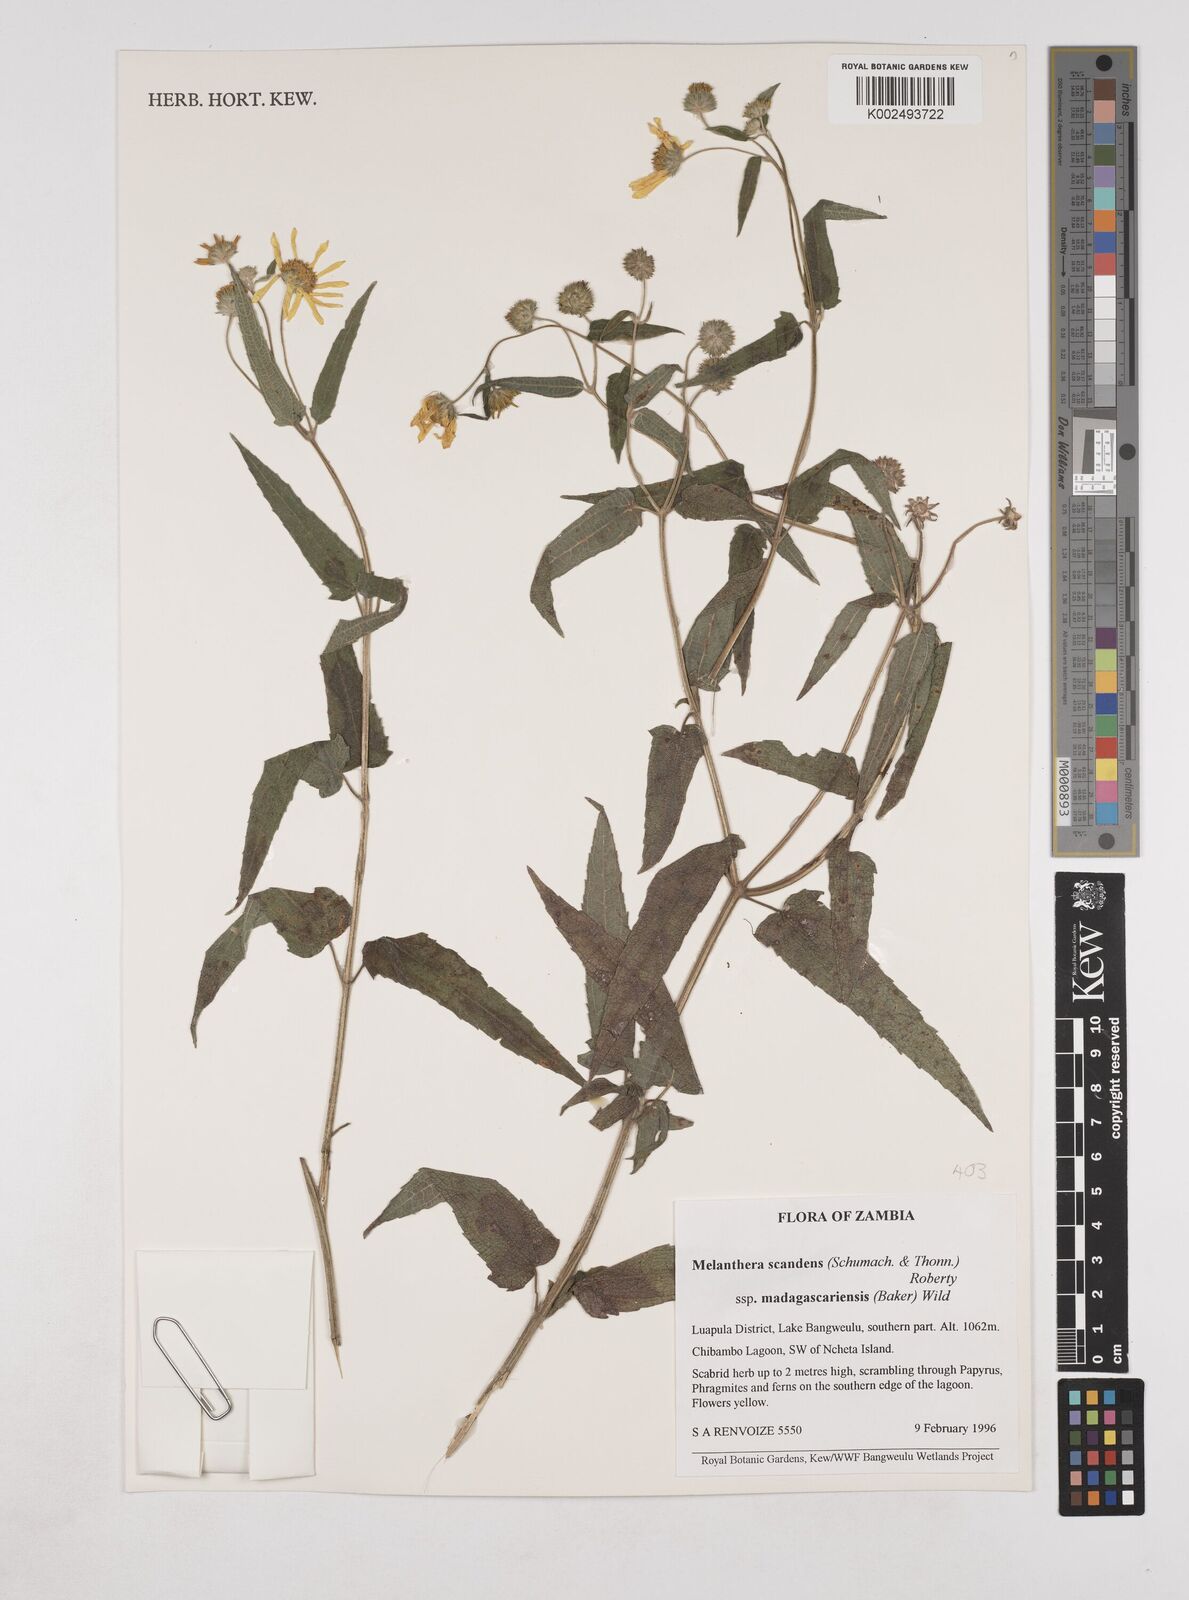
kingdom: Plantae
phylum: Tracheophyta
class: Magnoliopsida
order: Asterales
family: Asteraceae
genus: Lipotriche
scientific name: Lipotriche scandens
